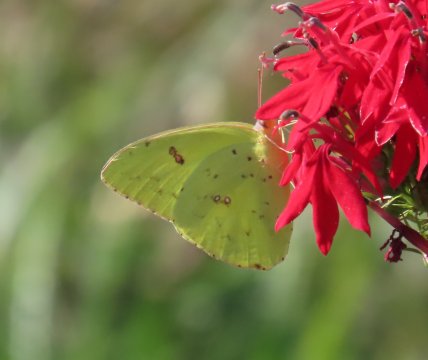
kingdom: Animalia
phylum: Arthropoda
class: Insecta
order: Lepidoptera
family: Pieridae
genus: Phoebis
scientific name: Phoebis sennae
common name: Cloudless Sulphur
